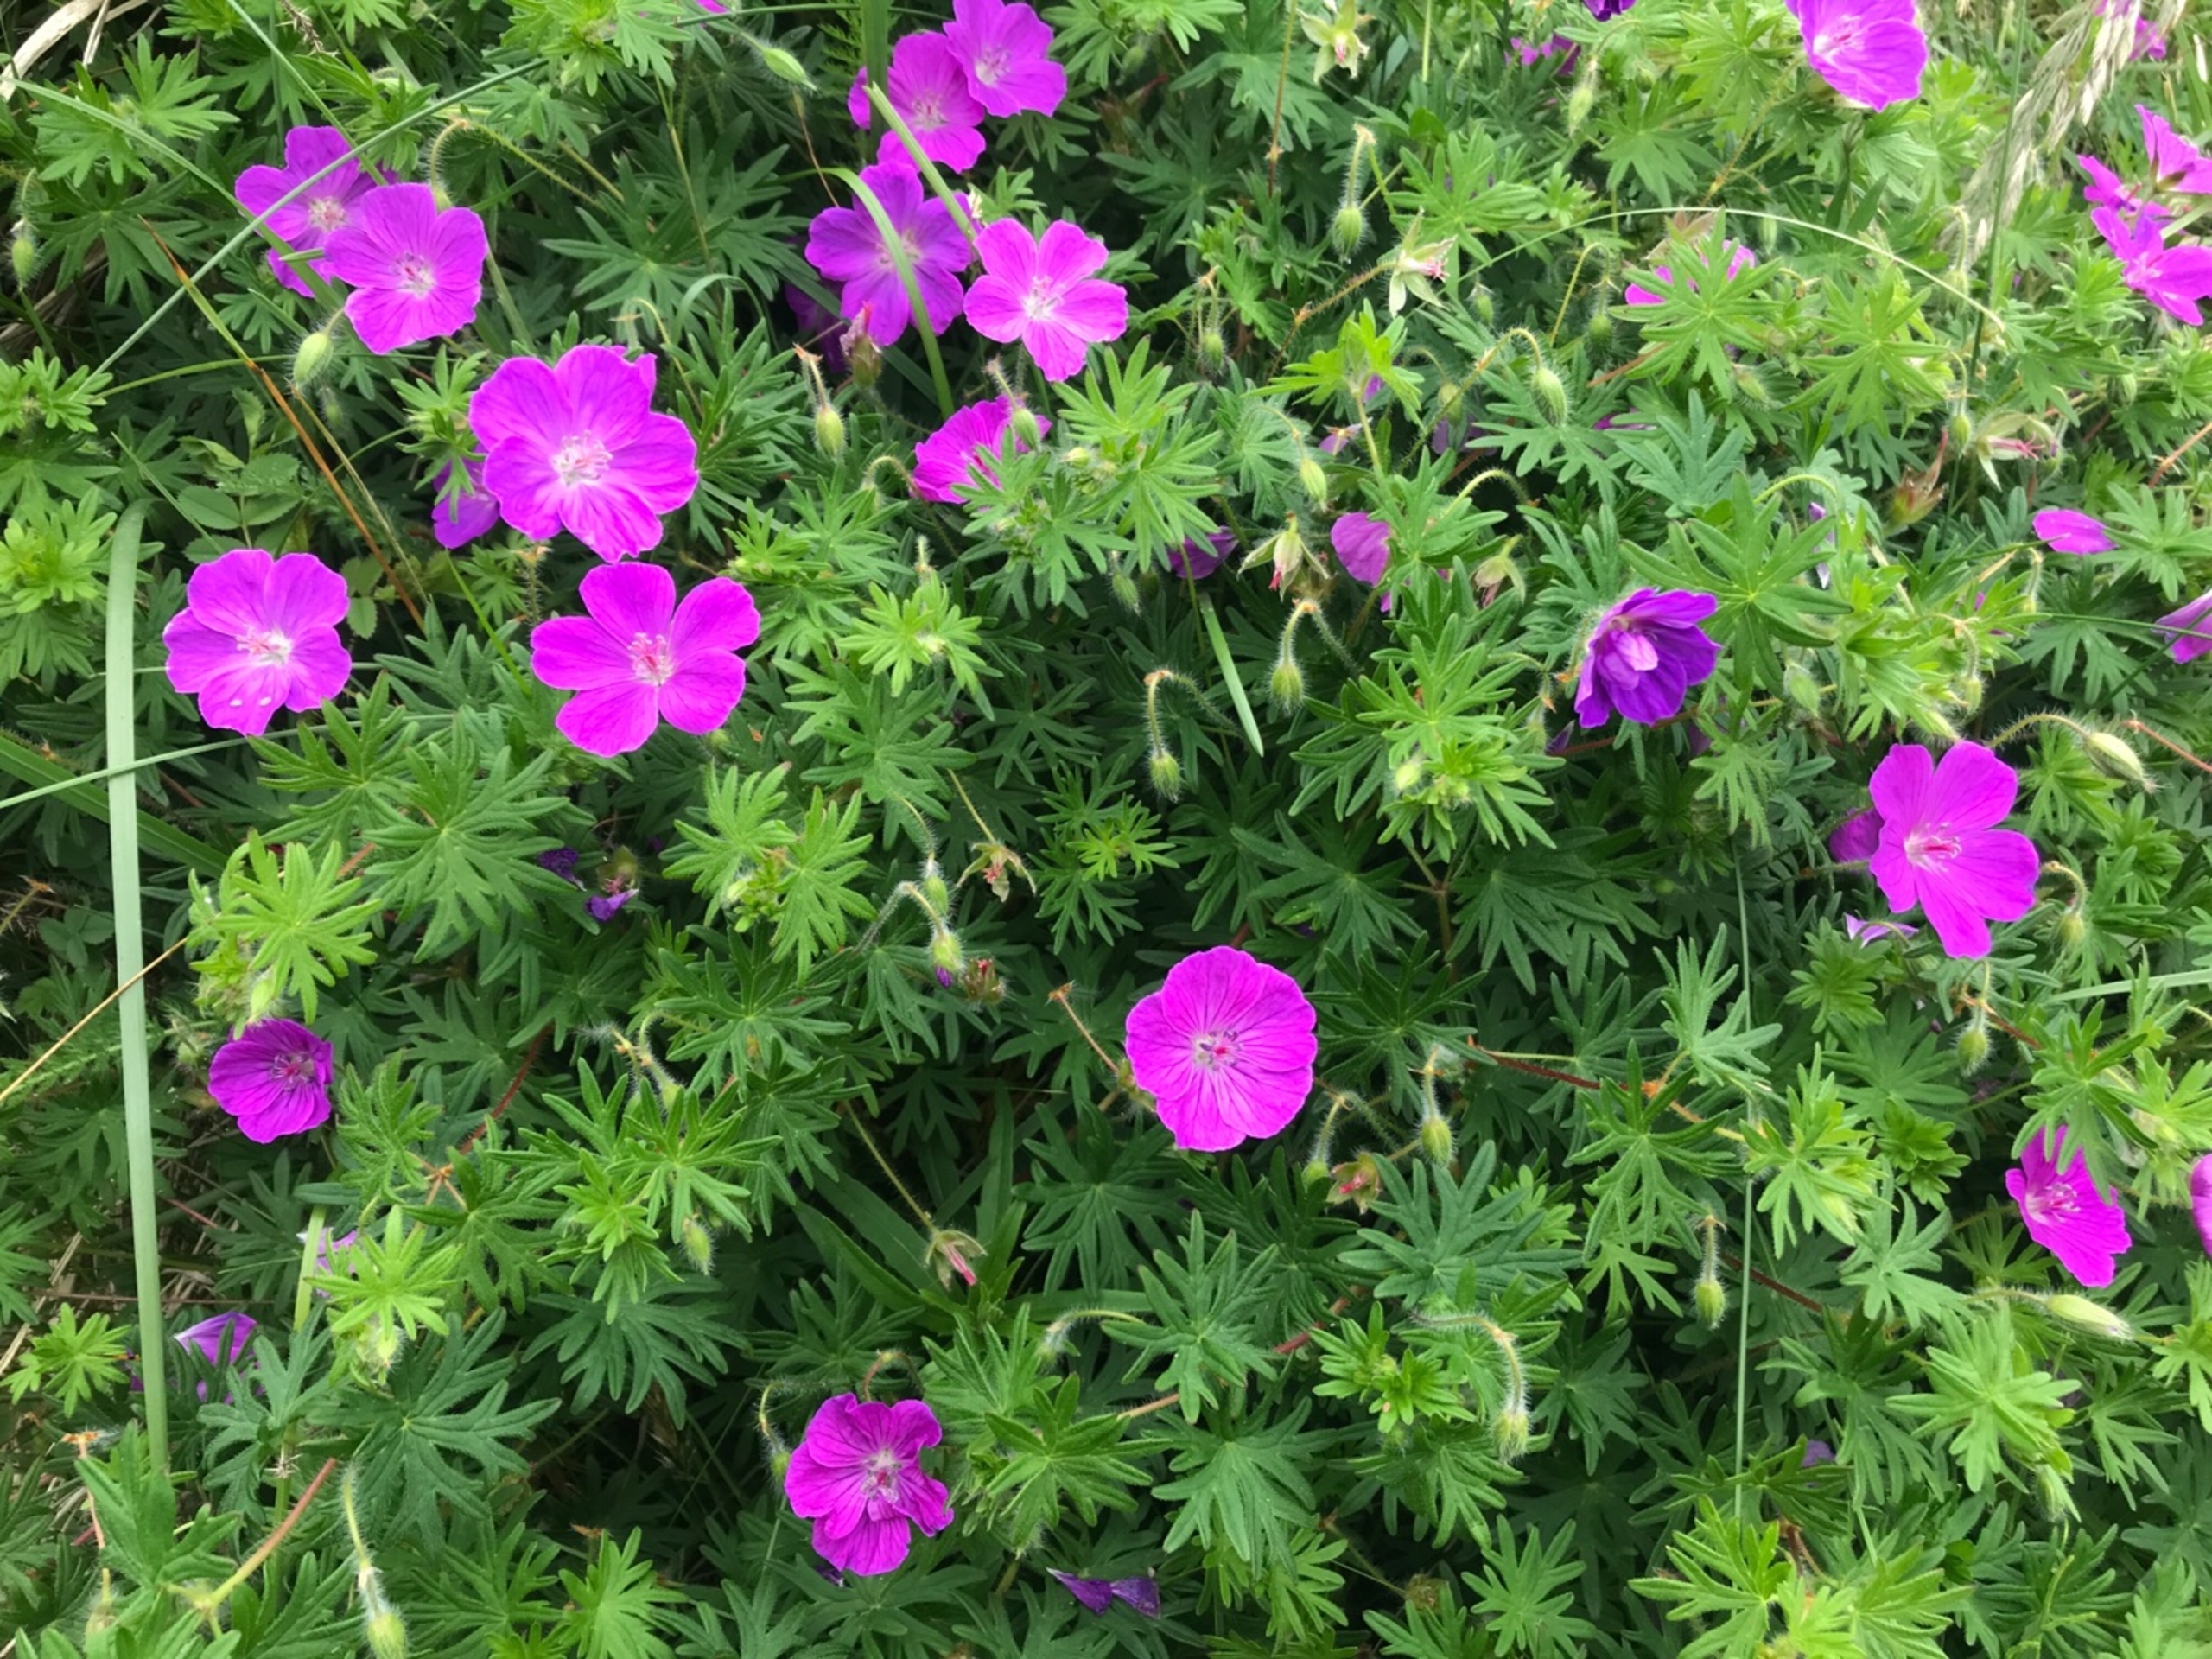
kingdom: Plantae
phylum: Tracheophyta
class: Magnoliopsida
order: Geraniales
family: Geraniaceae
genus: Geranium
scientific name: Geranium sanguineum
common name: Blodrød storkenæb
